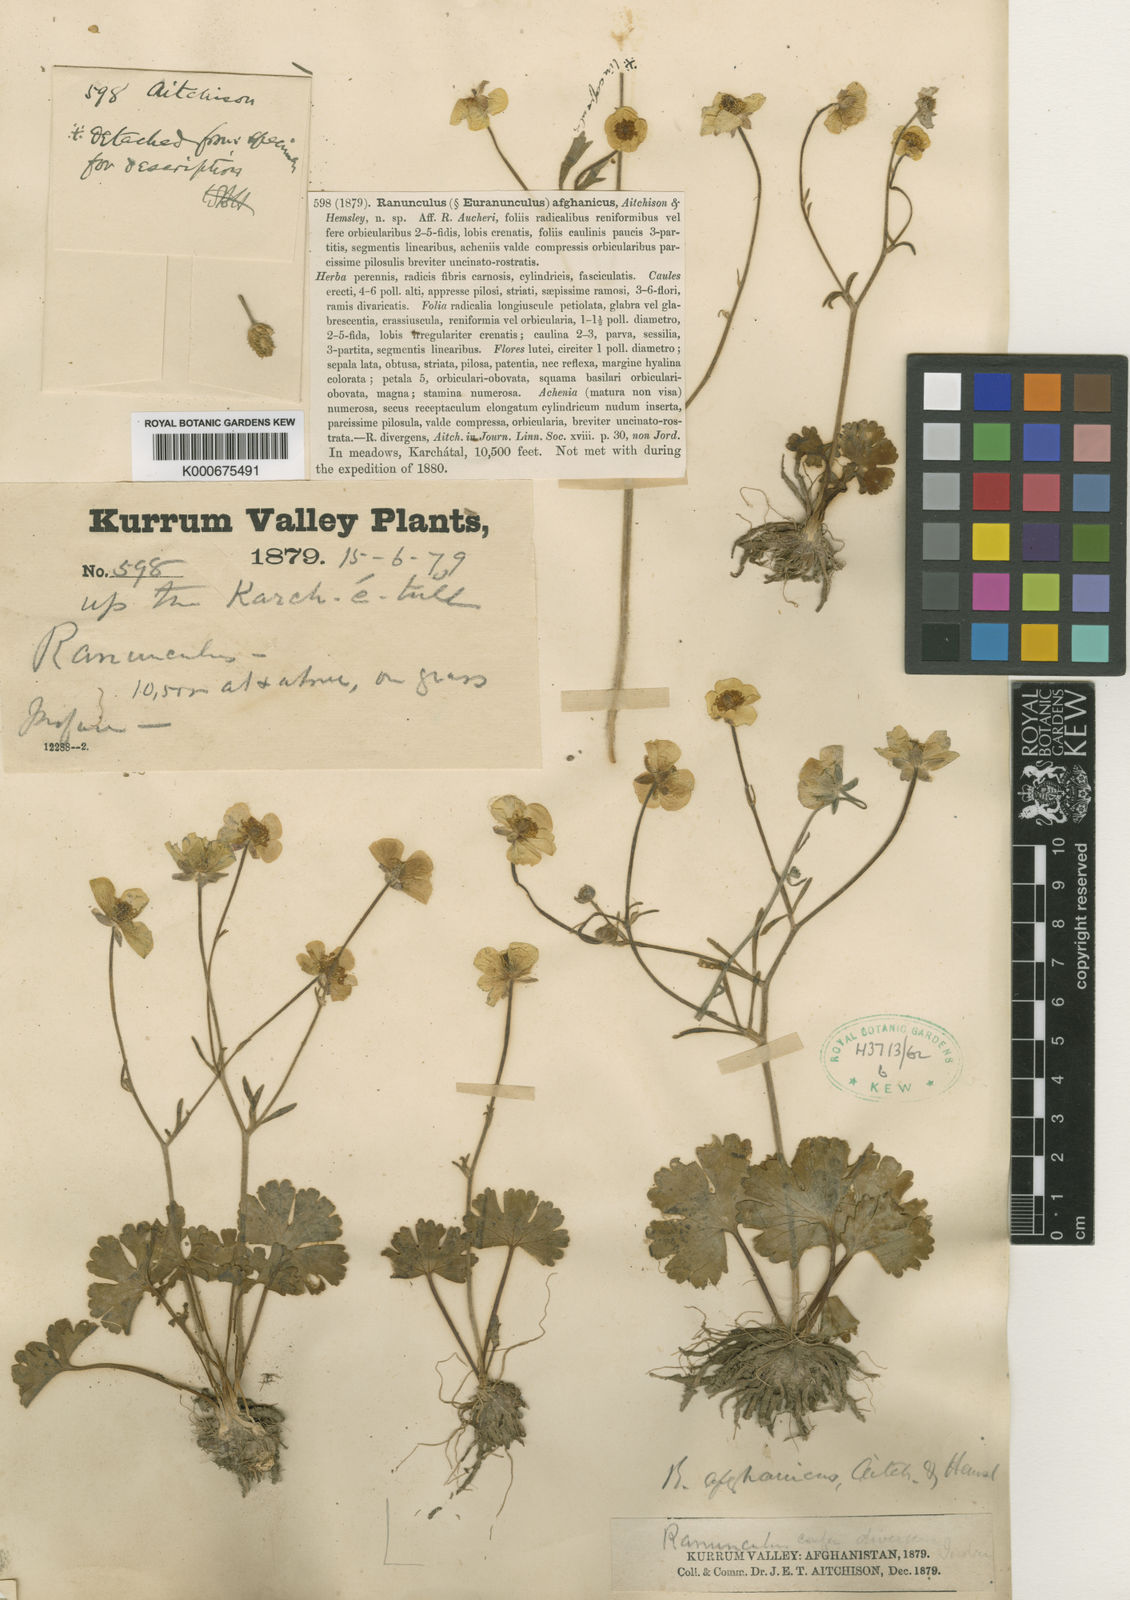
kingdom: Plantae
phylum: Tracheophyta
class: Magnoliopsida
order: Ranunculales
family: Ranunculaceae
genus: Ranunculus
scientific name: Ranunculus afghanicus
